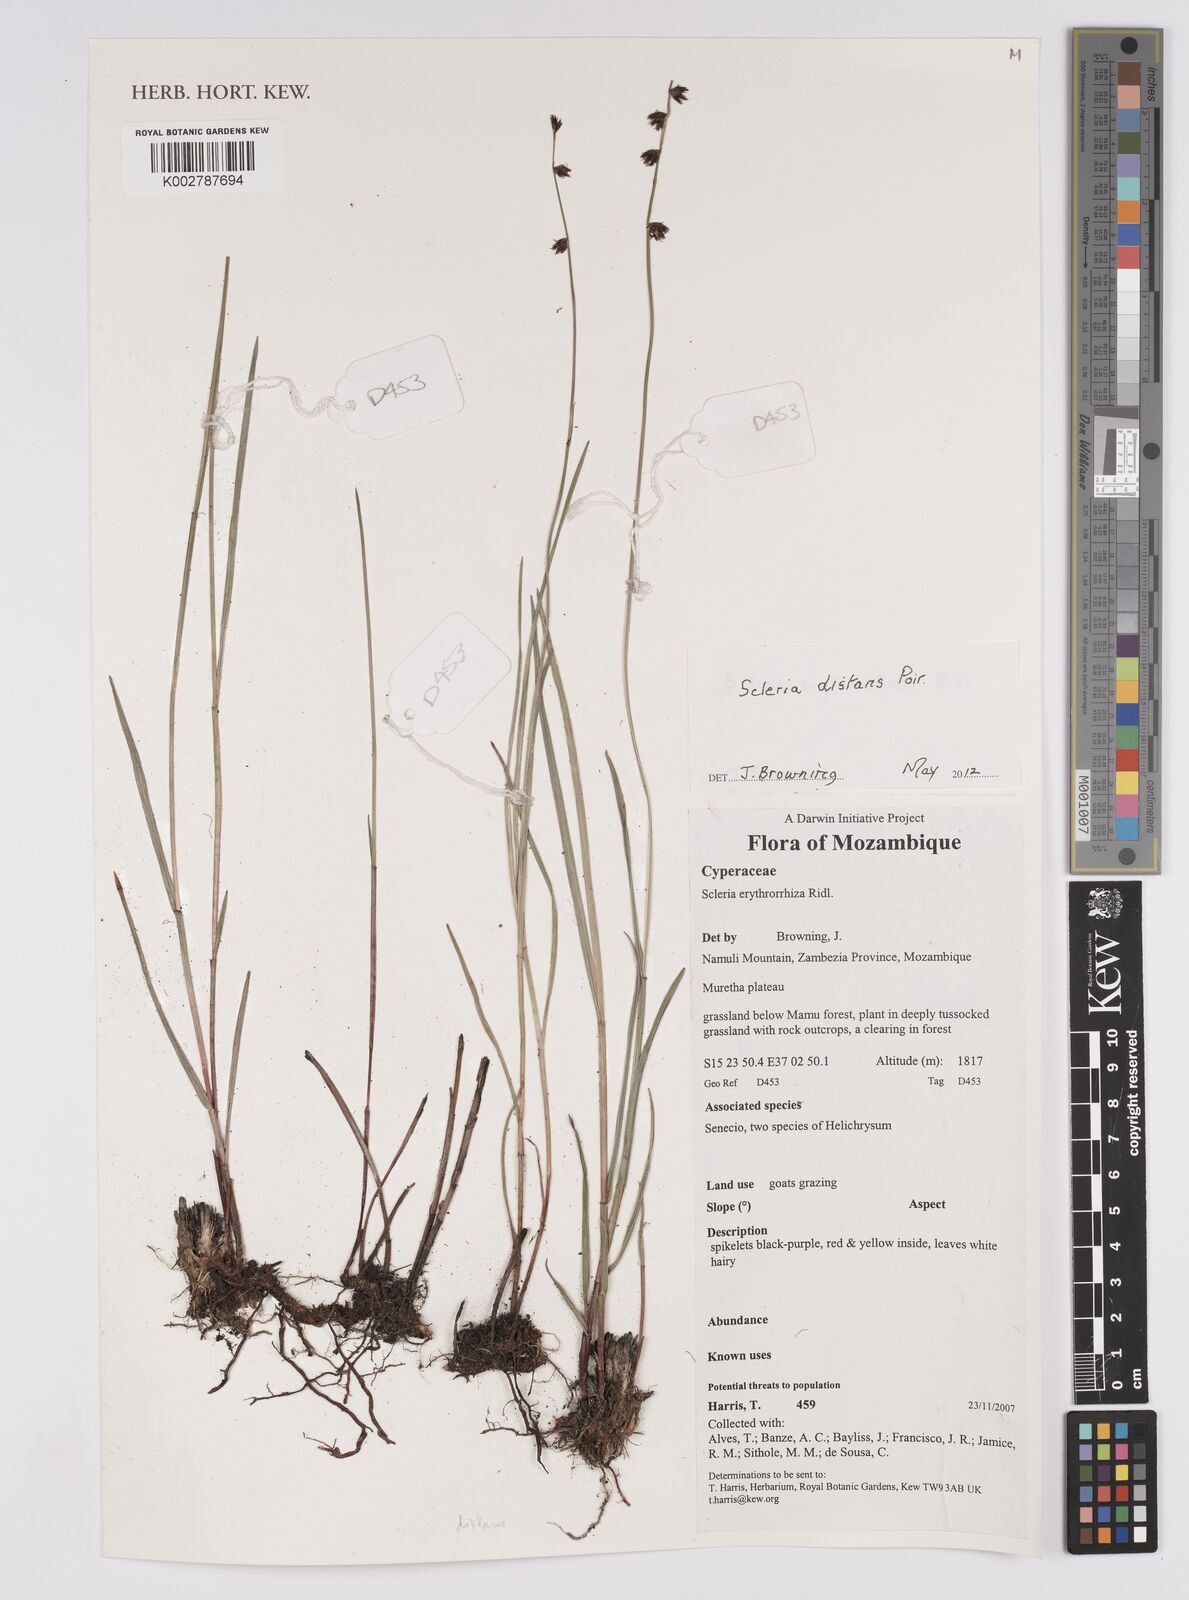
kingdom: Plantae
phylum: Tracheophyta
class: Liliopsida
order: Poales
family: Cyperaceae
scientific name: Cyperaceae
